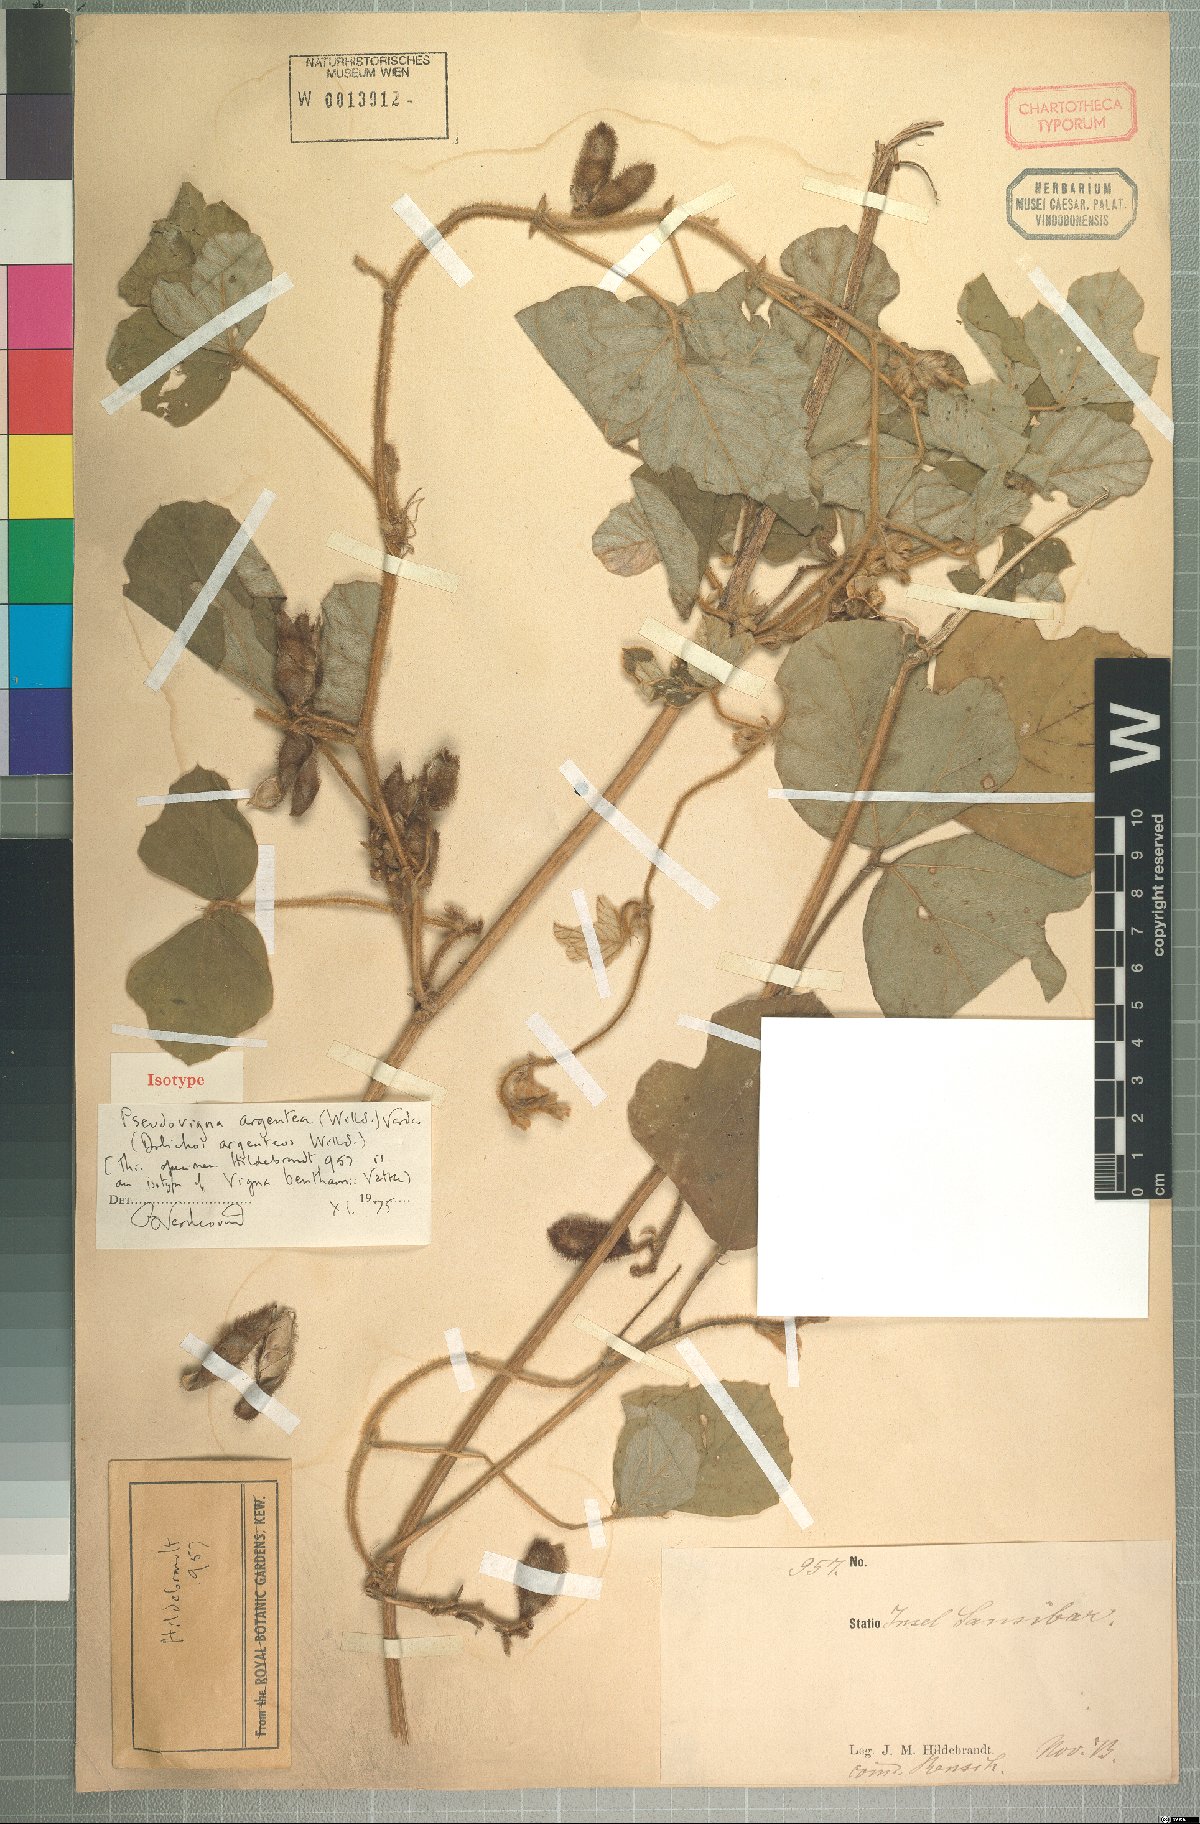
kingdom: Plantae
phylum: Tracheophyta
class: Magnoliopsida
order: Fabales
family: Fabaceae
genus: Pseudovigna
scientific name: Pseudovigna argentea
